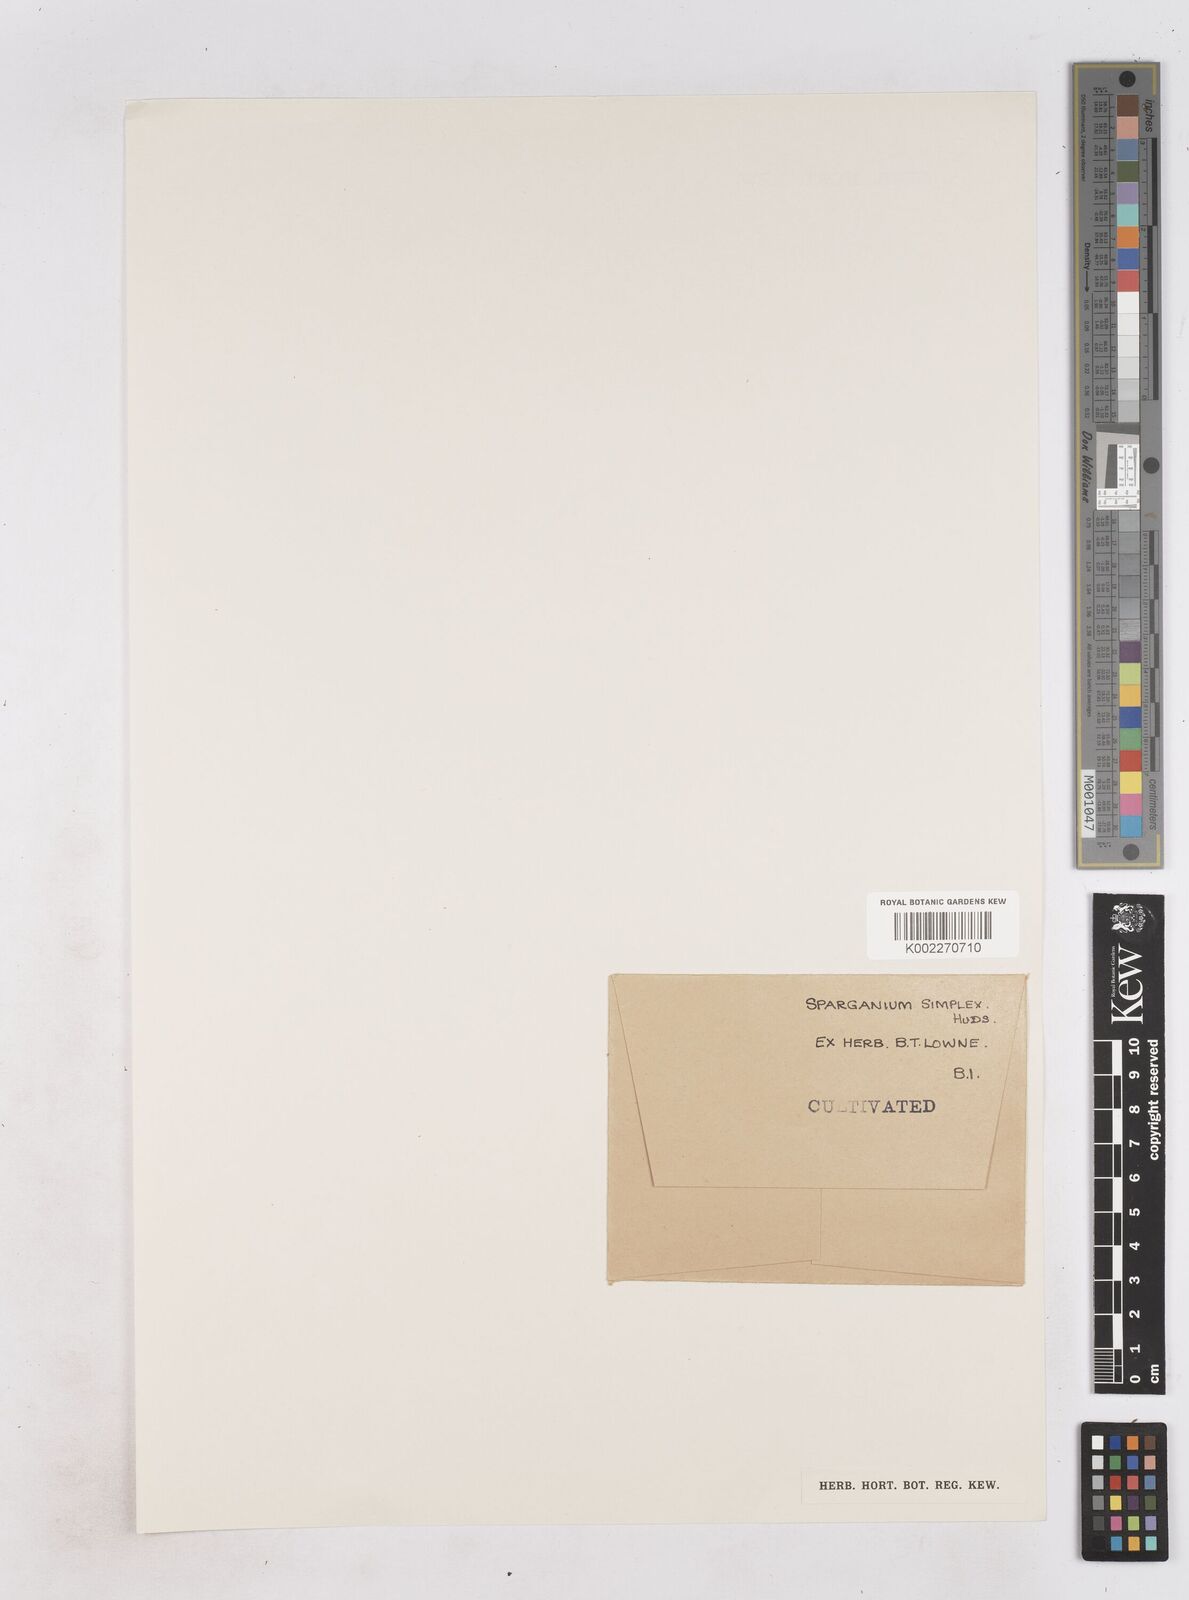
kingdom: Plantae
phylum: Tracheophyta
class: Liliopsida
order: Poales
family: Typhaceae
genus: Sparganium
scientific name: Sparganium erectum
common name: Branched bur-reed
